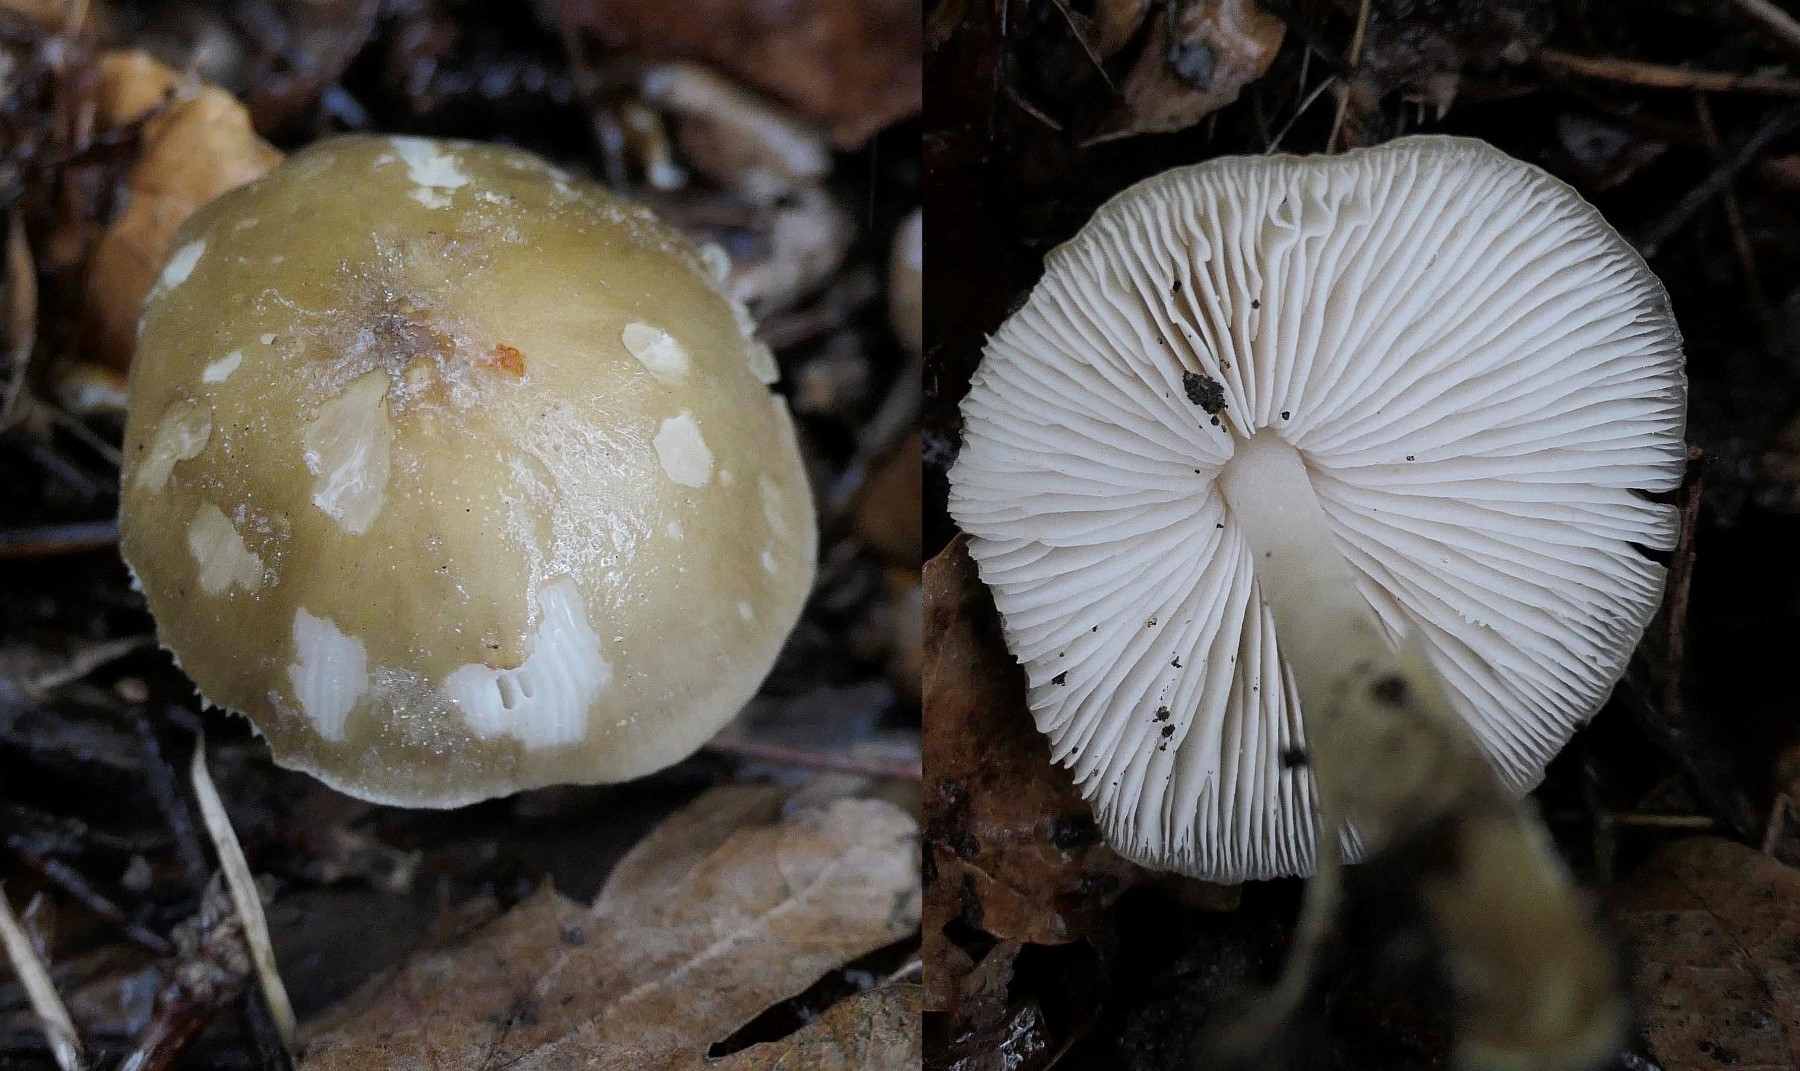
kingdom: Fungi
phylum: Basidiomycota
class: Agaricomycetes
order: Agaricales
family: Porotheleaceae
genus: Hydropodia
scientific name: Hydropodia subalpina
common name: vår-fnugfod
